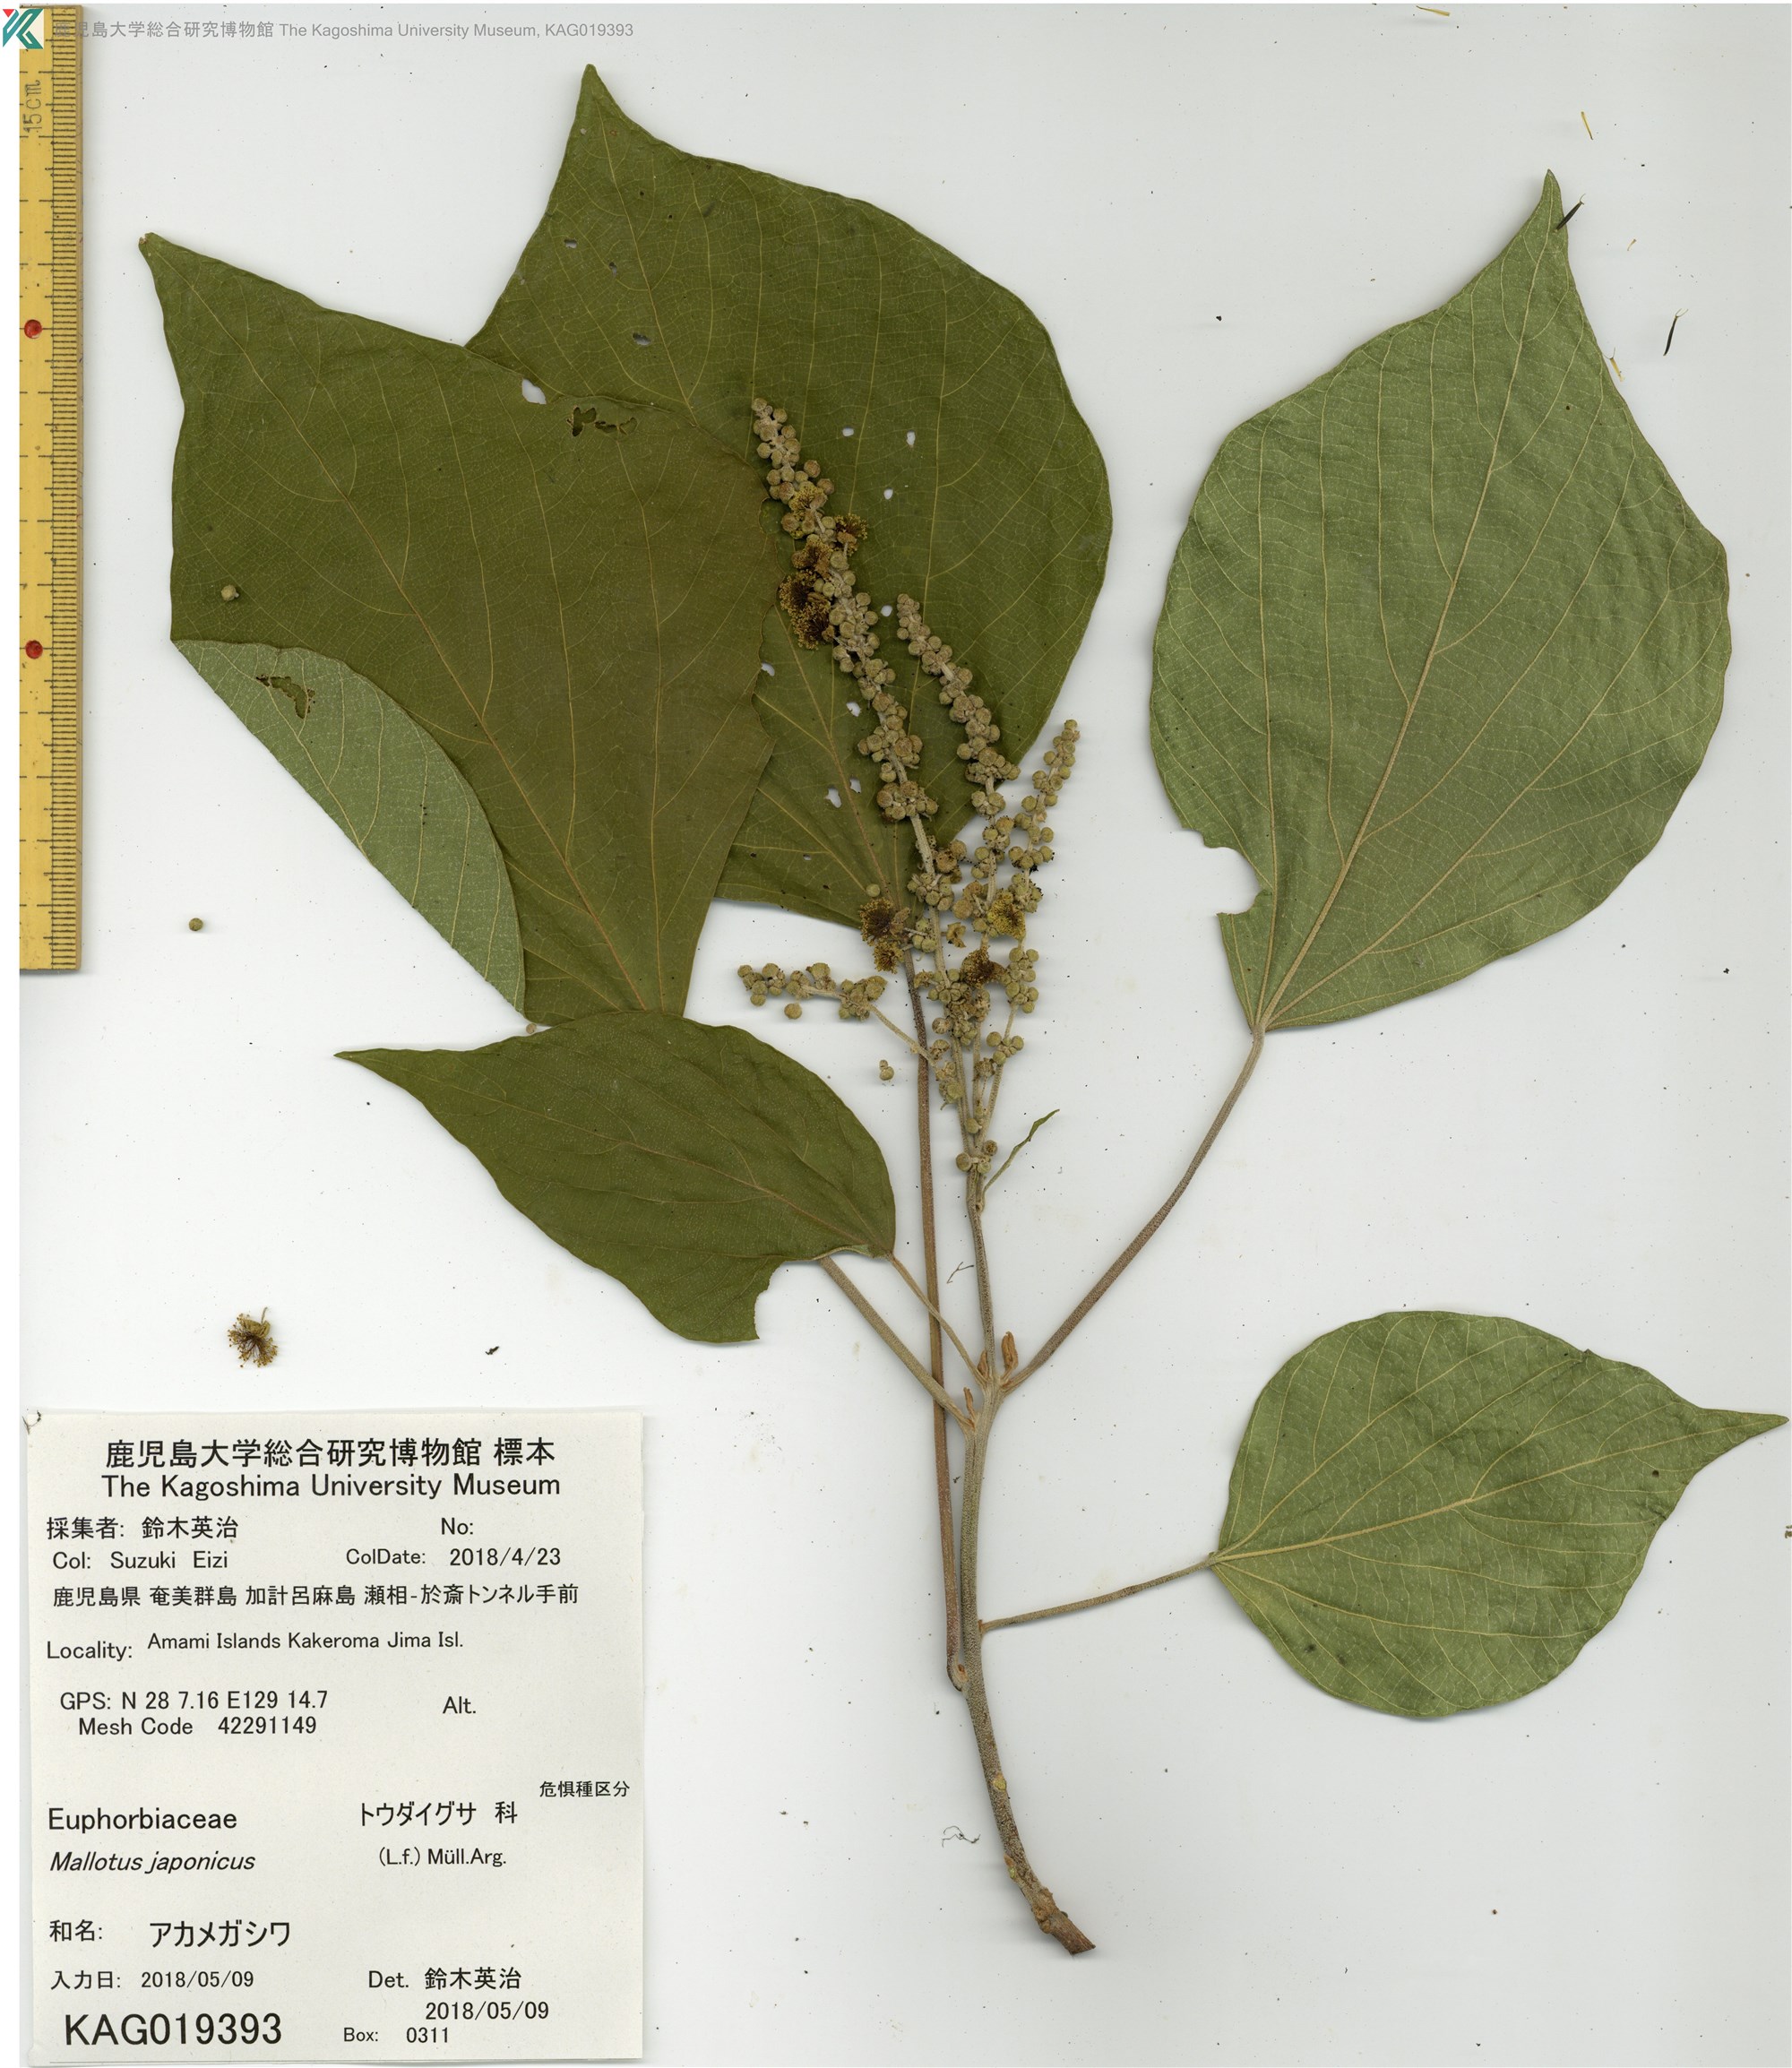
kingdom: Plantae
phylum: Tracheophyta
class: Magnoliopsida
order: Malpighiales
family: Euphorbiaceae
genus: Mallotus
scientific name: Mallotus japonicus
